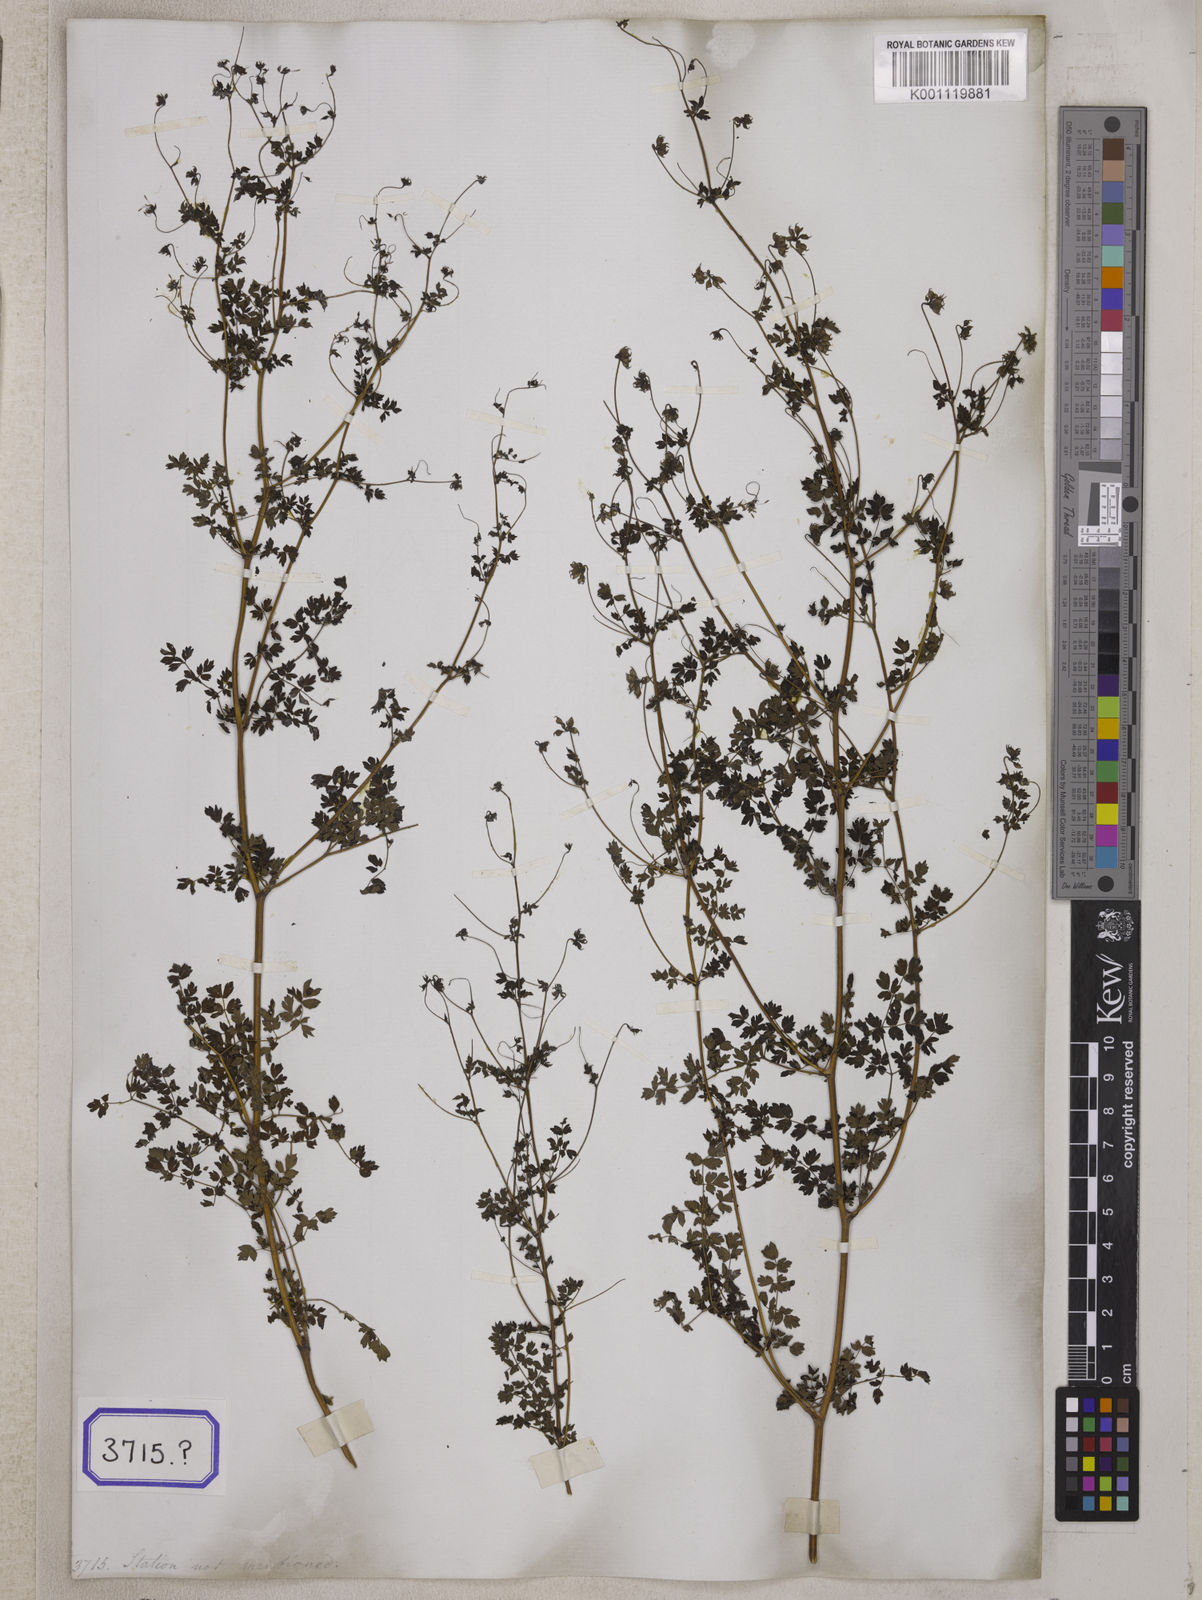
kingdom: Plantae
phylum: Tracheophyta
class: Magnoliopsida
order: Ranunculales
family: Ranunculaceae
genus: Thalictrum
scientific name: Thalictrum cultratum
